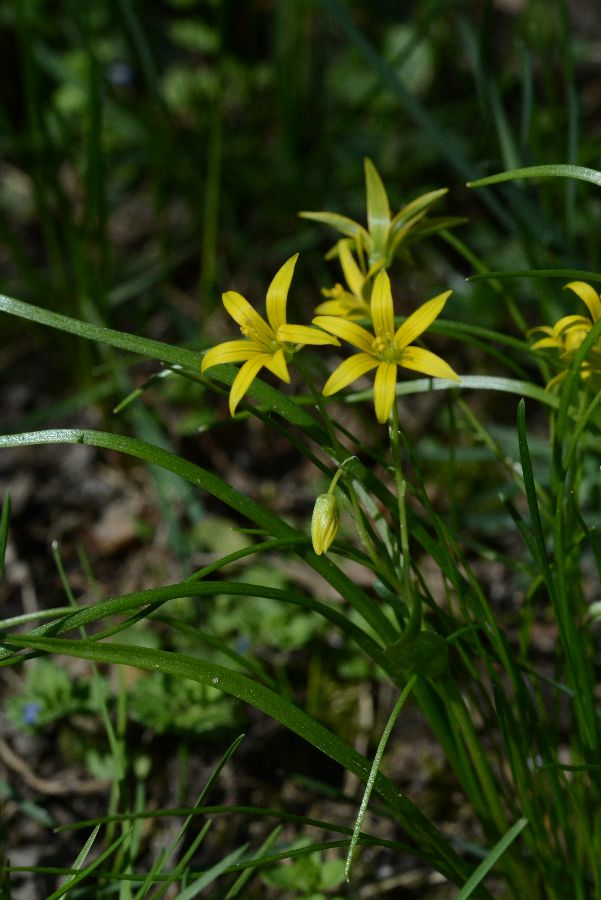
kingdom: Plantae
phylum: Tracheophyta
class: Liliopsida
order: Liliales
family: Liliaceae
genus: Gagea
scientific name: Gagea minima
